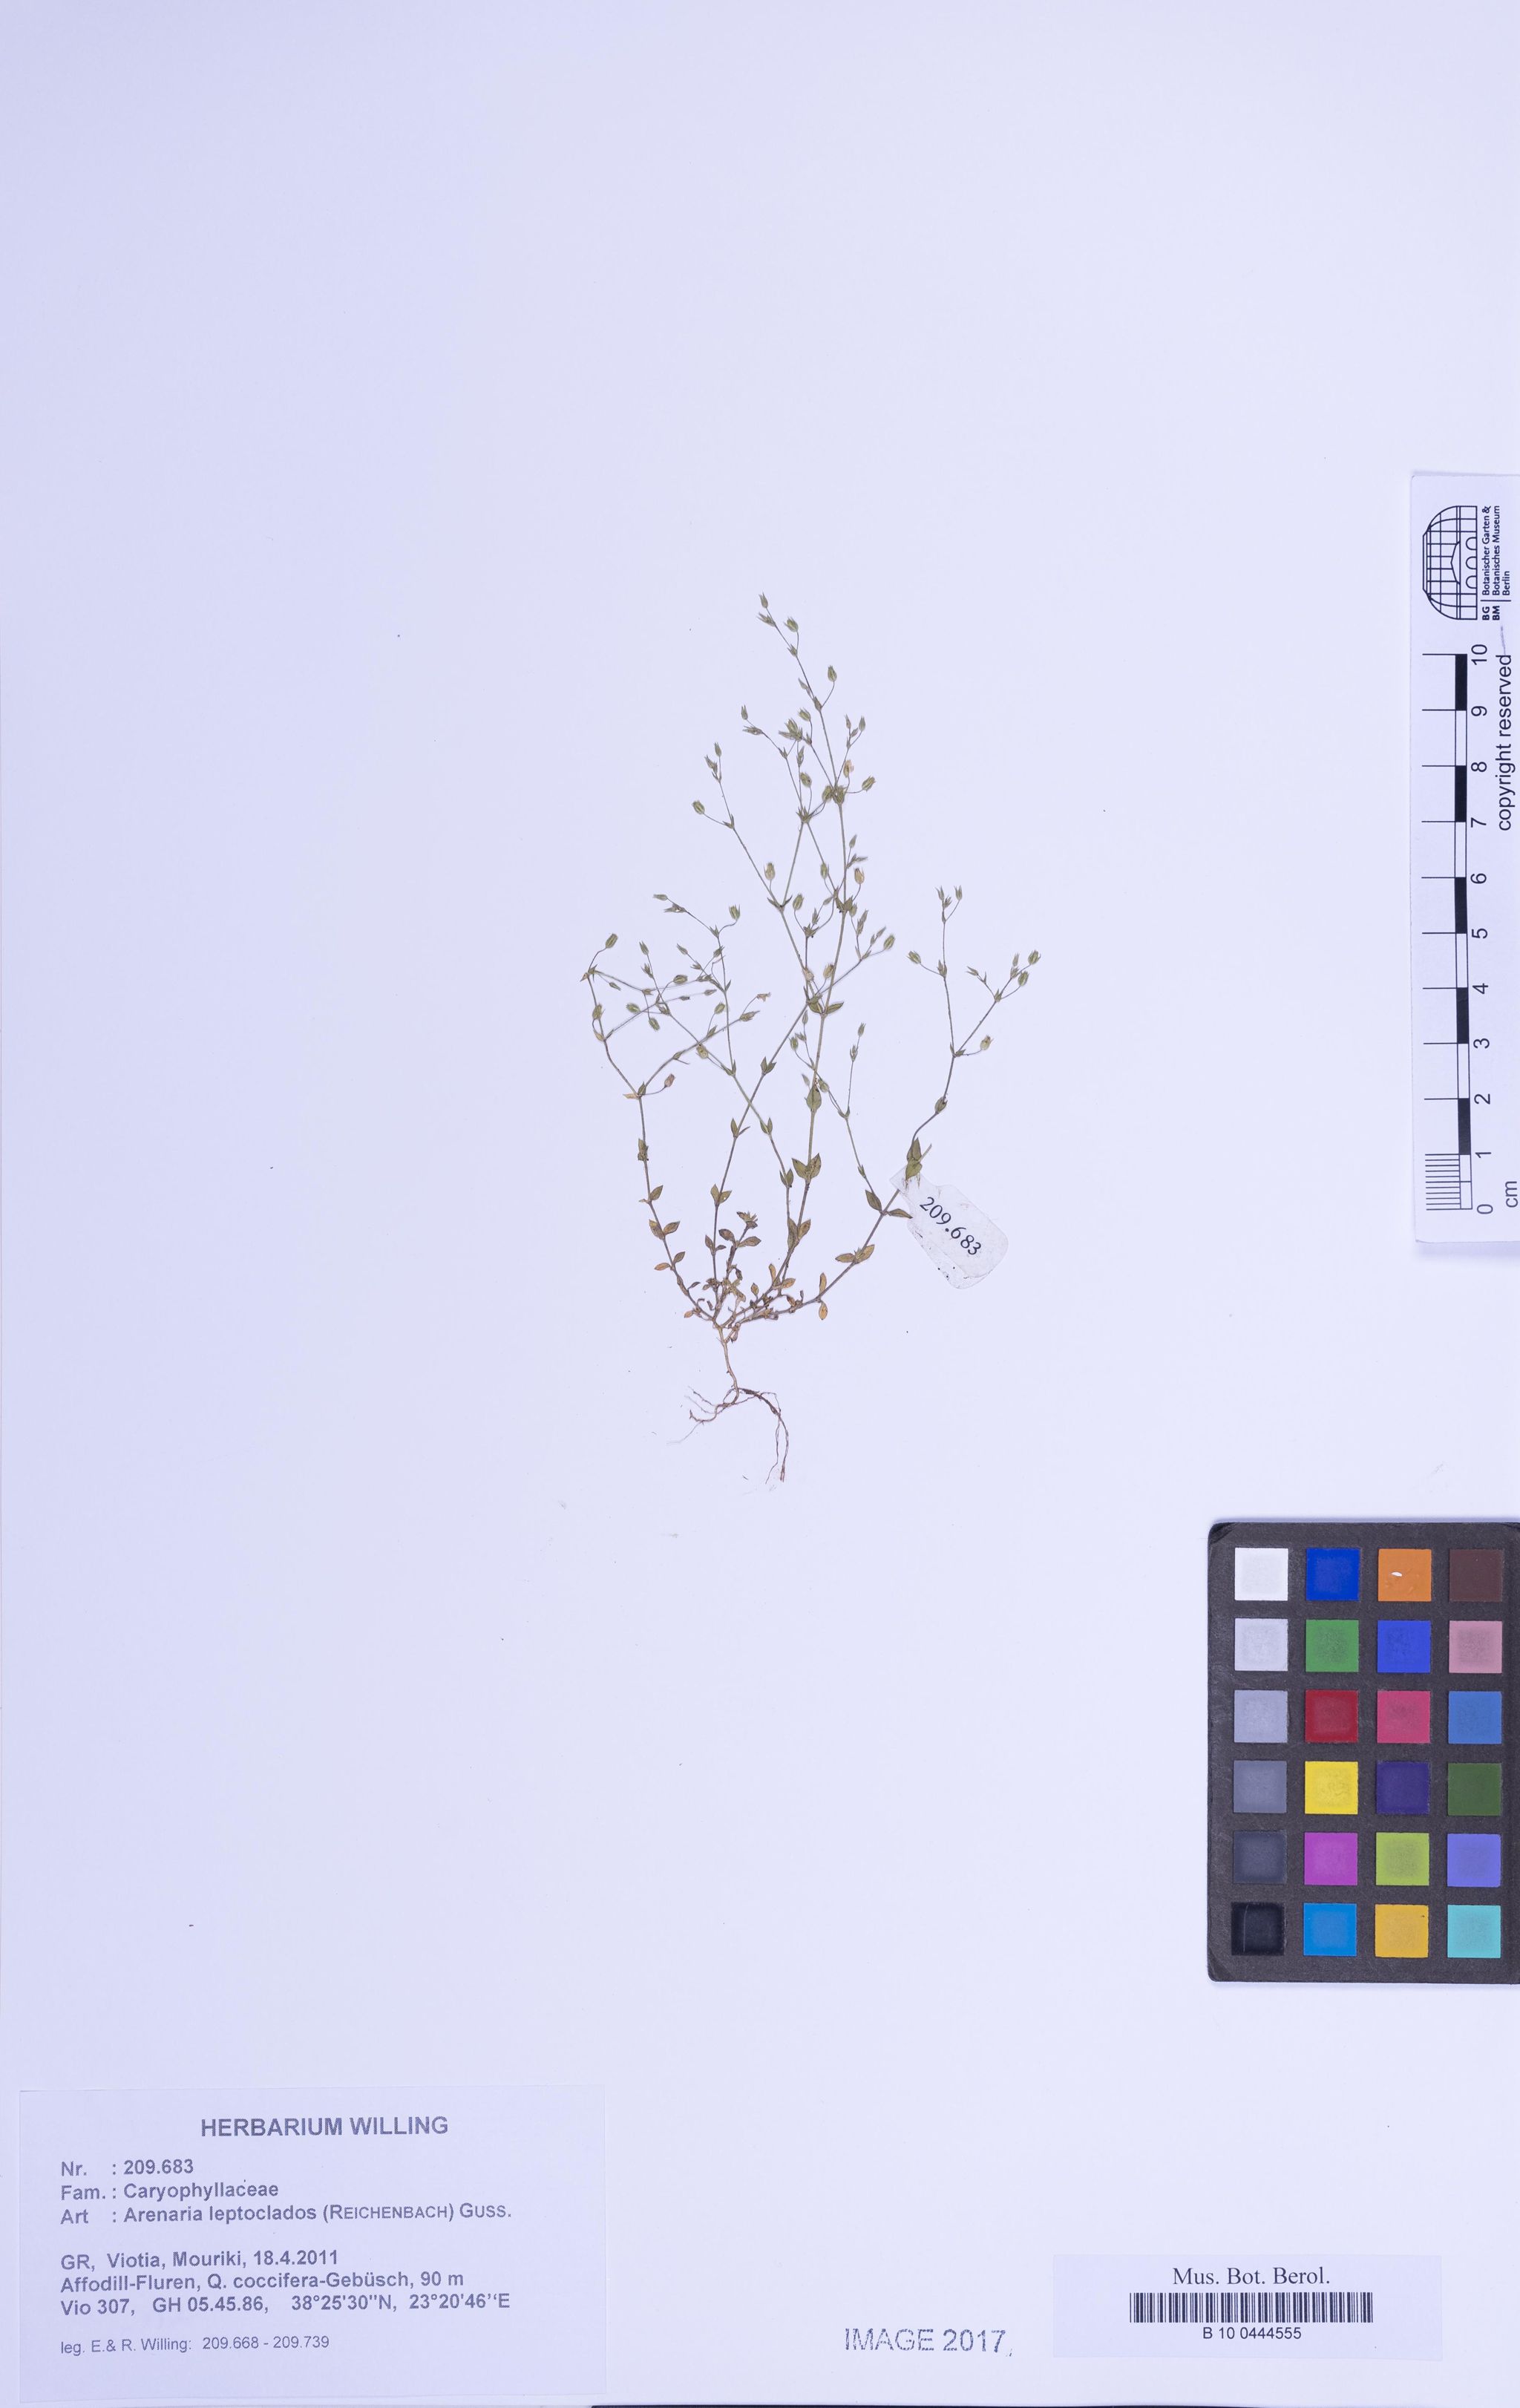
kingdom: Plantae
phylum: Tracheophyta
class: Magnoliopsida
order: Caryophyllales
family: Caryophyllaceae
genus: Arenaria
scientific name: Arenaria leptoclados
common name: Thyme-leaved sandwort
